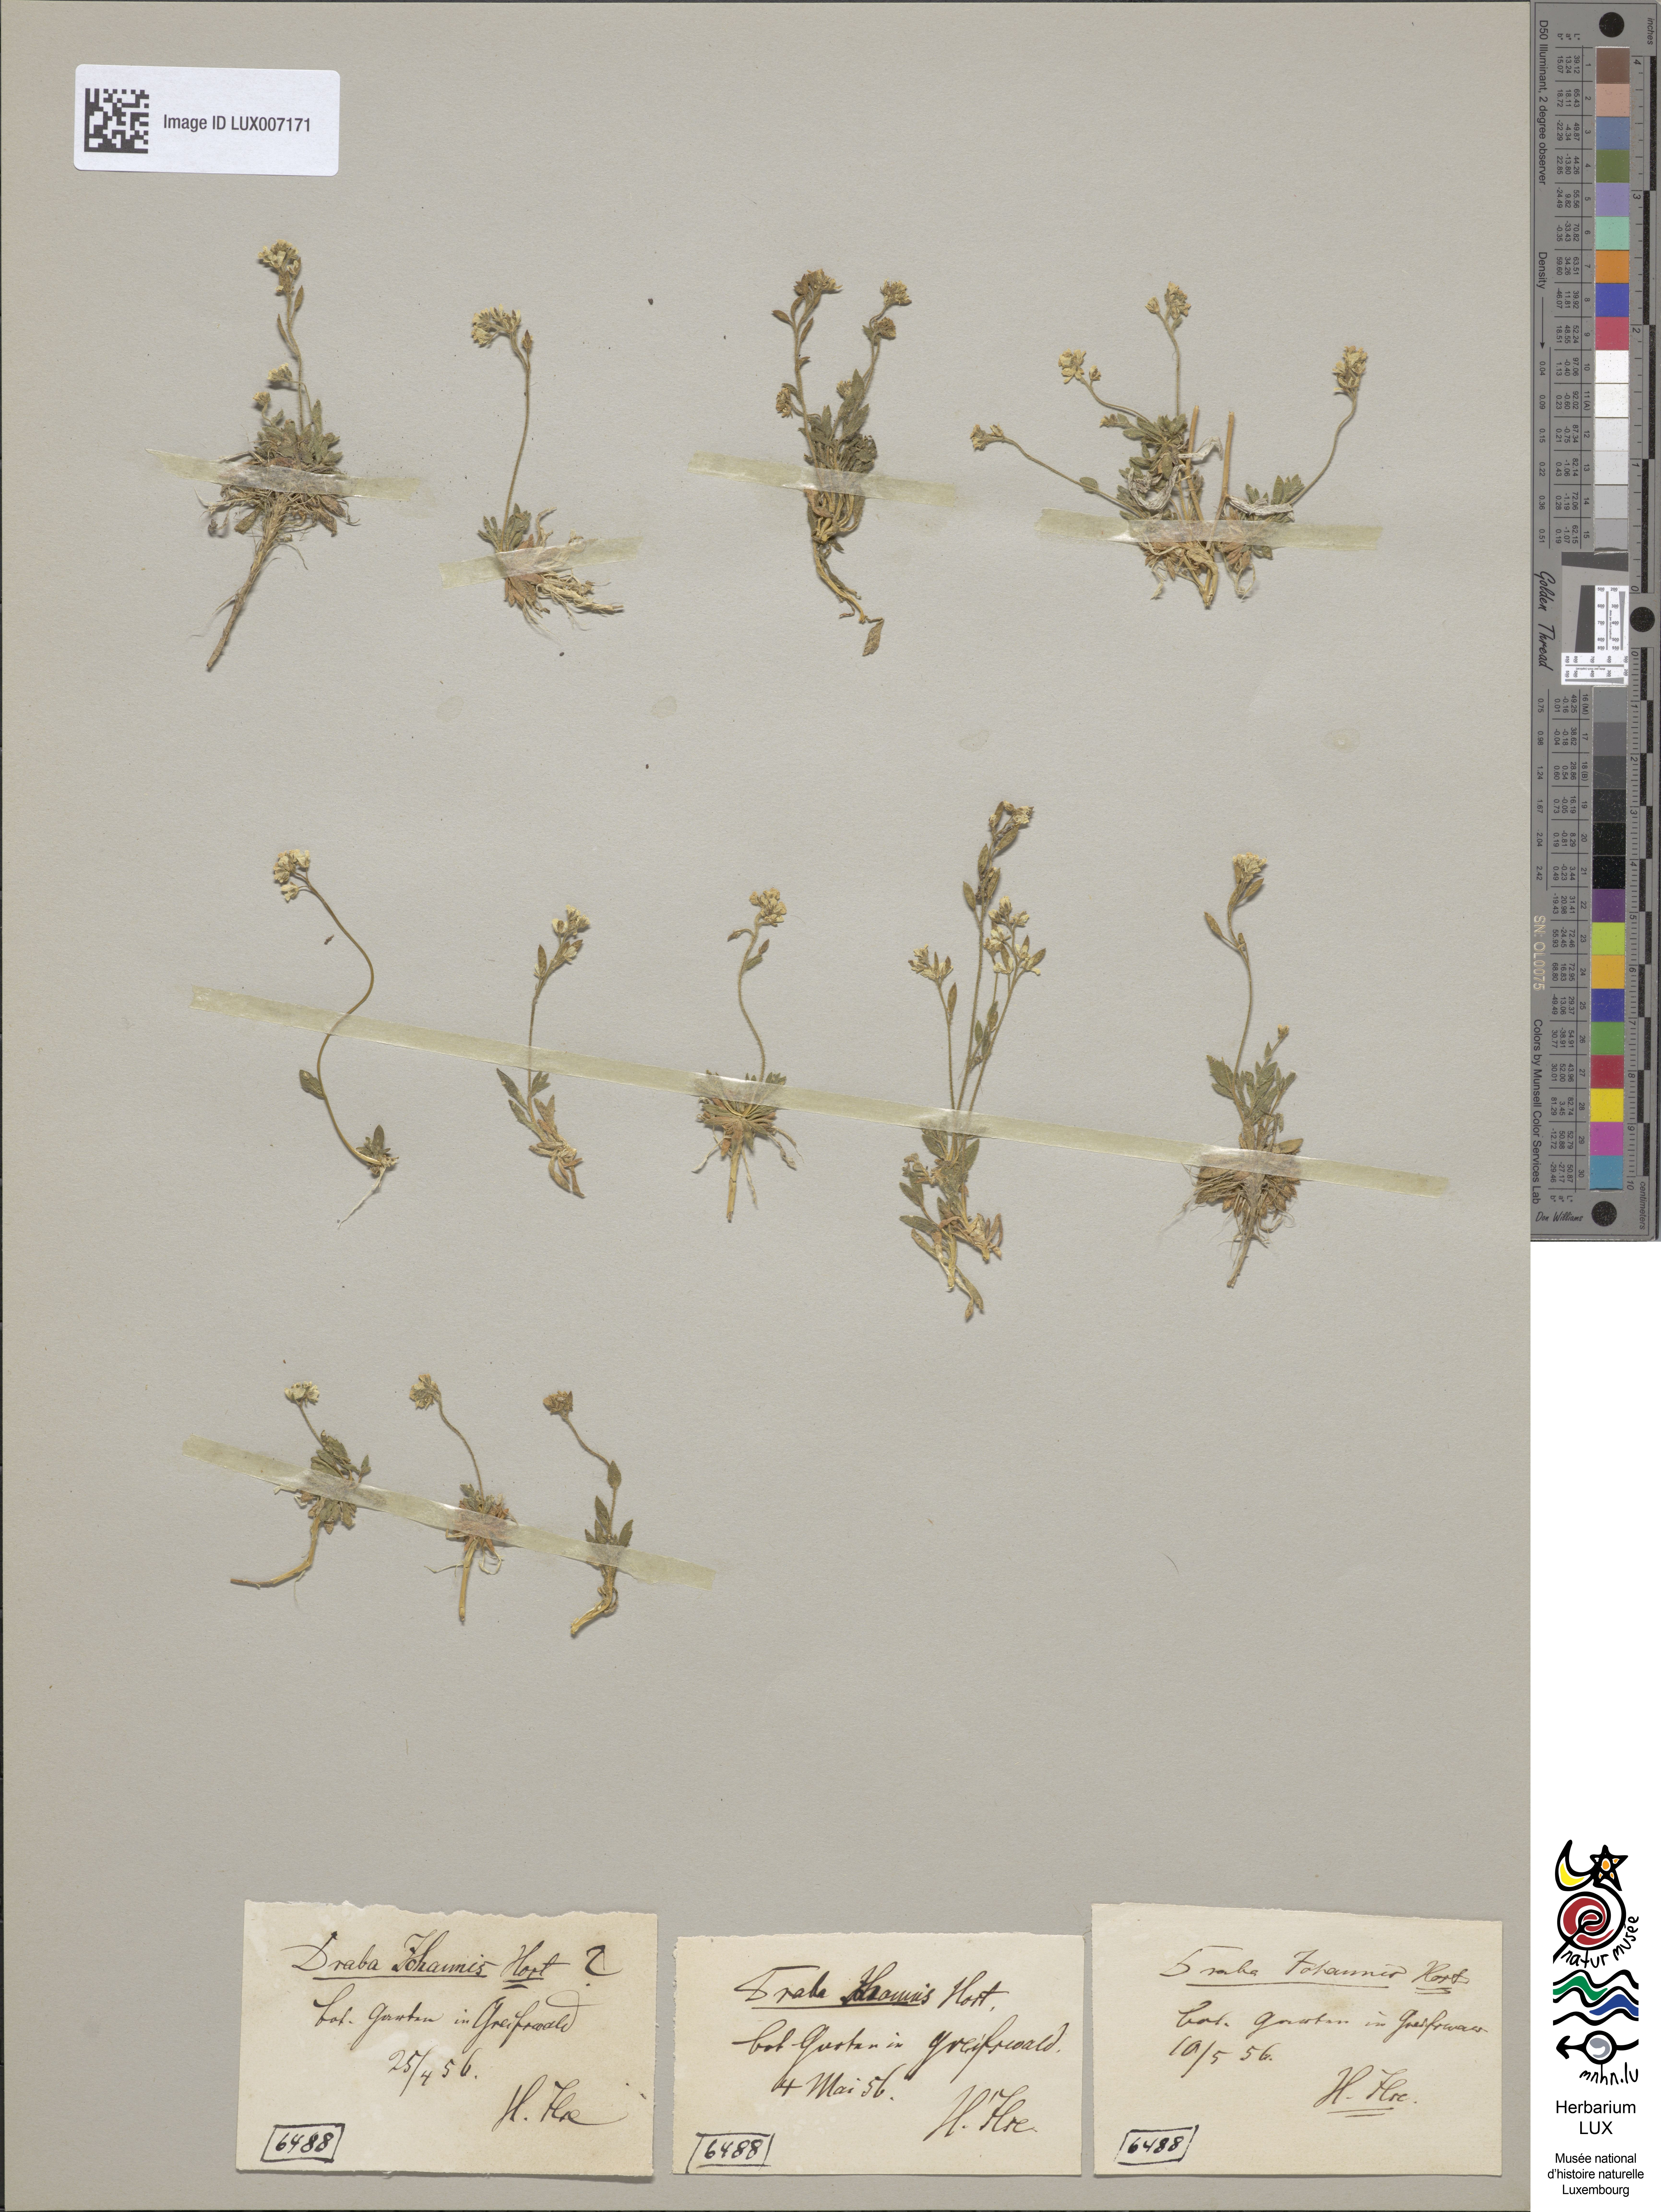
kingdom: Plantae
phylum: Tracheophyta
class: Magnoliopsida
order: Brassicales
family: Brassicaceae
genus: Draba
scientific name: Draba siliquosa
